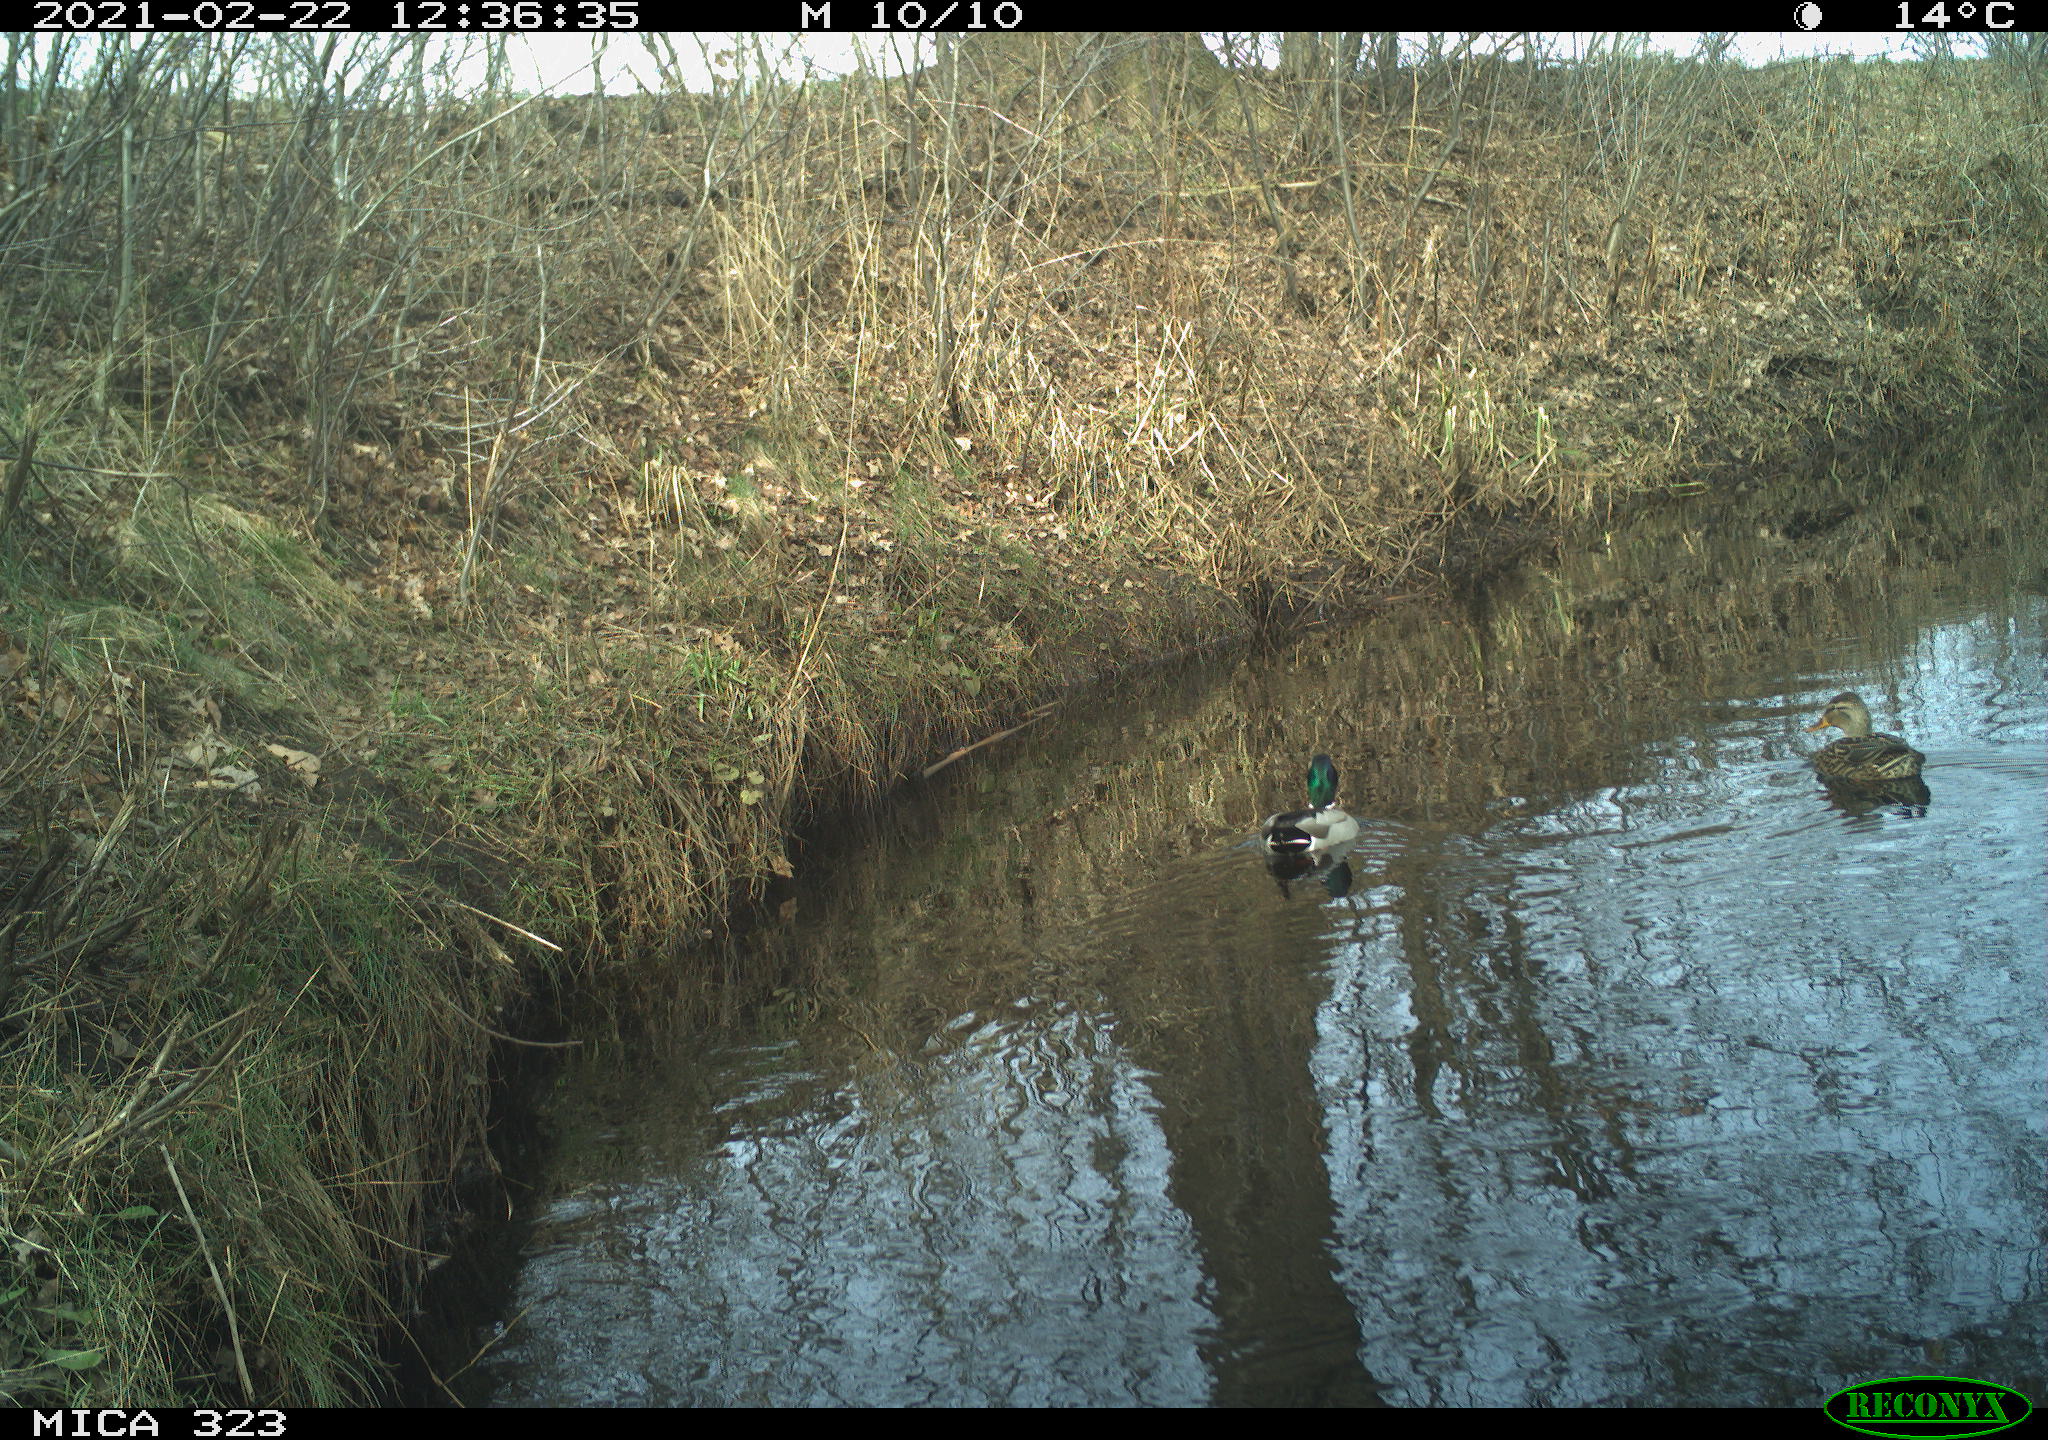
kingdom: Animalia
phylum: Chordata
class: Aves
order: Anseriformes
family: Anatidae
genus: Anas
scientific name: Anas platyrhynchos
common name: Mallard
